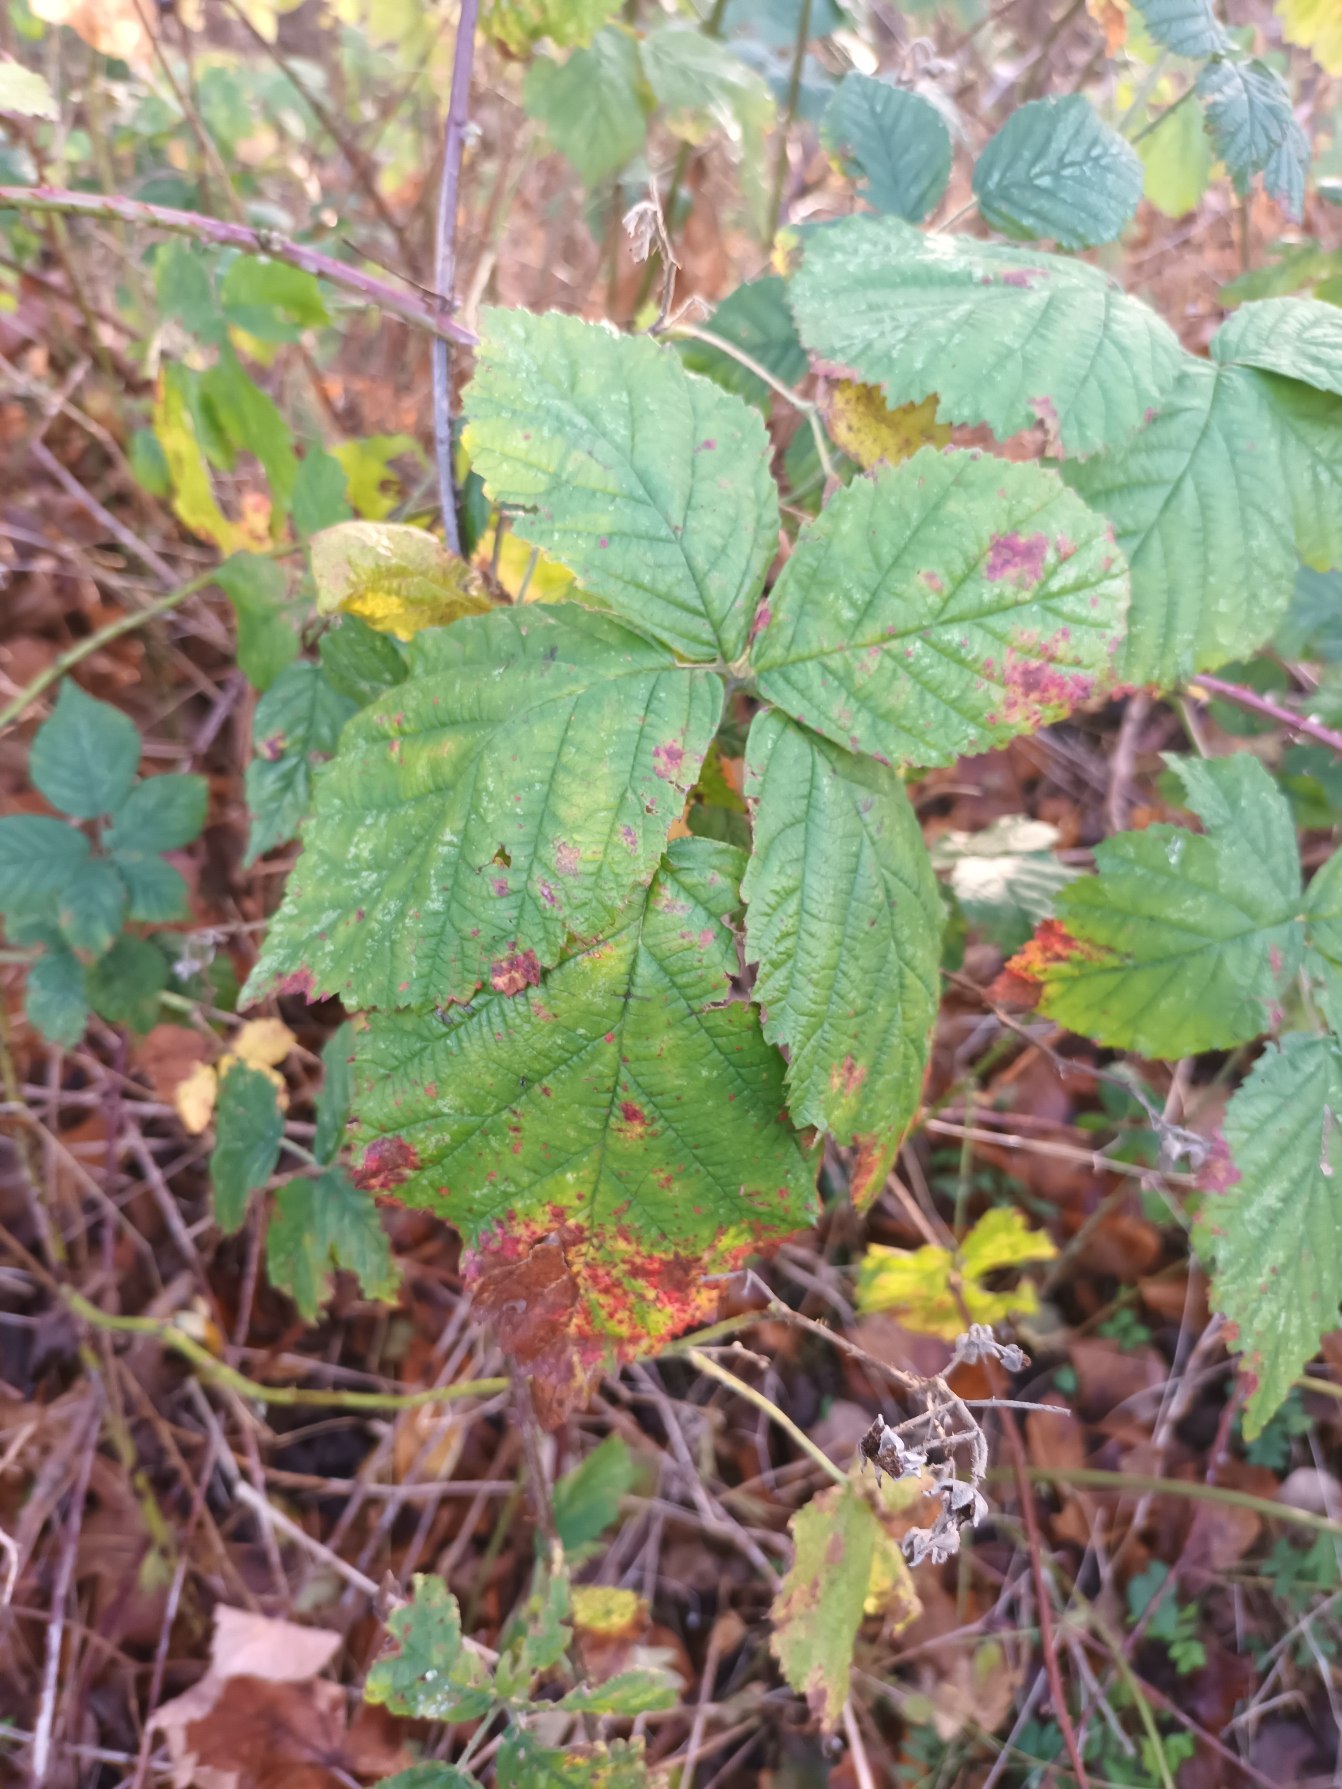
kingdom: Plantae
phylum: Tracheophyta
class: Magnoliopsida
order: Rosales
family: Rosaceae
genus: Rubus
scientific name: Rubus decurrentispinus
